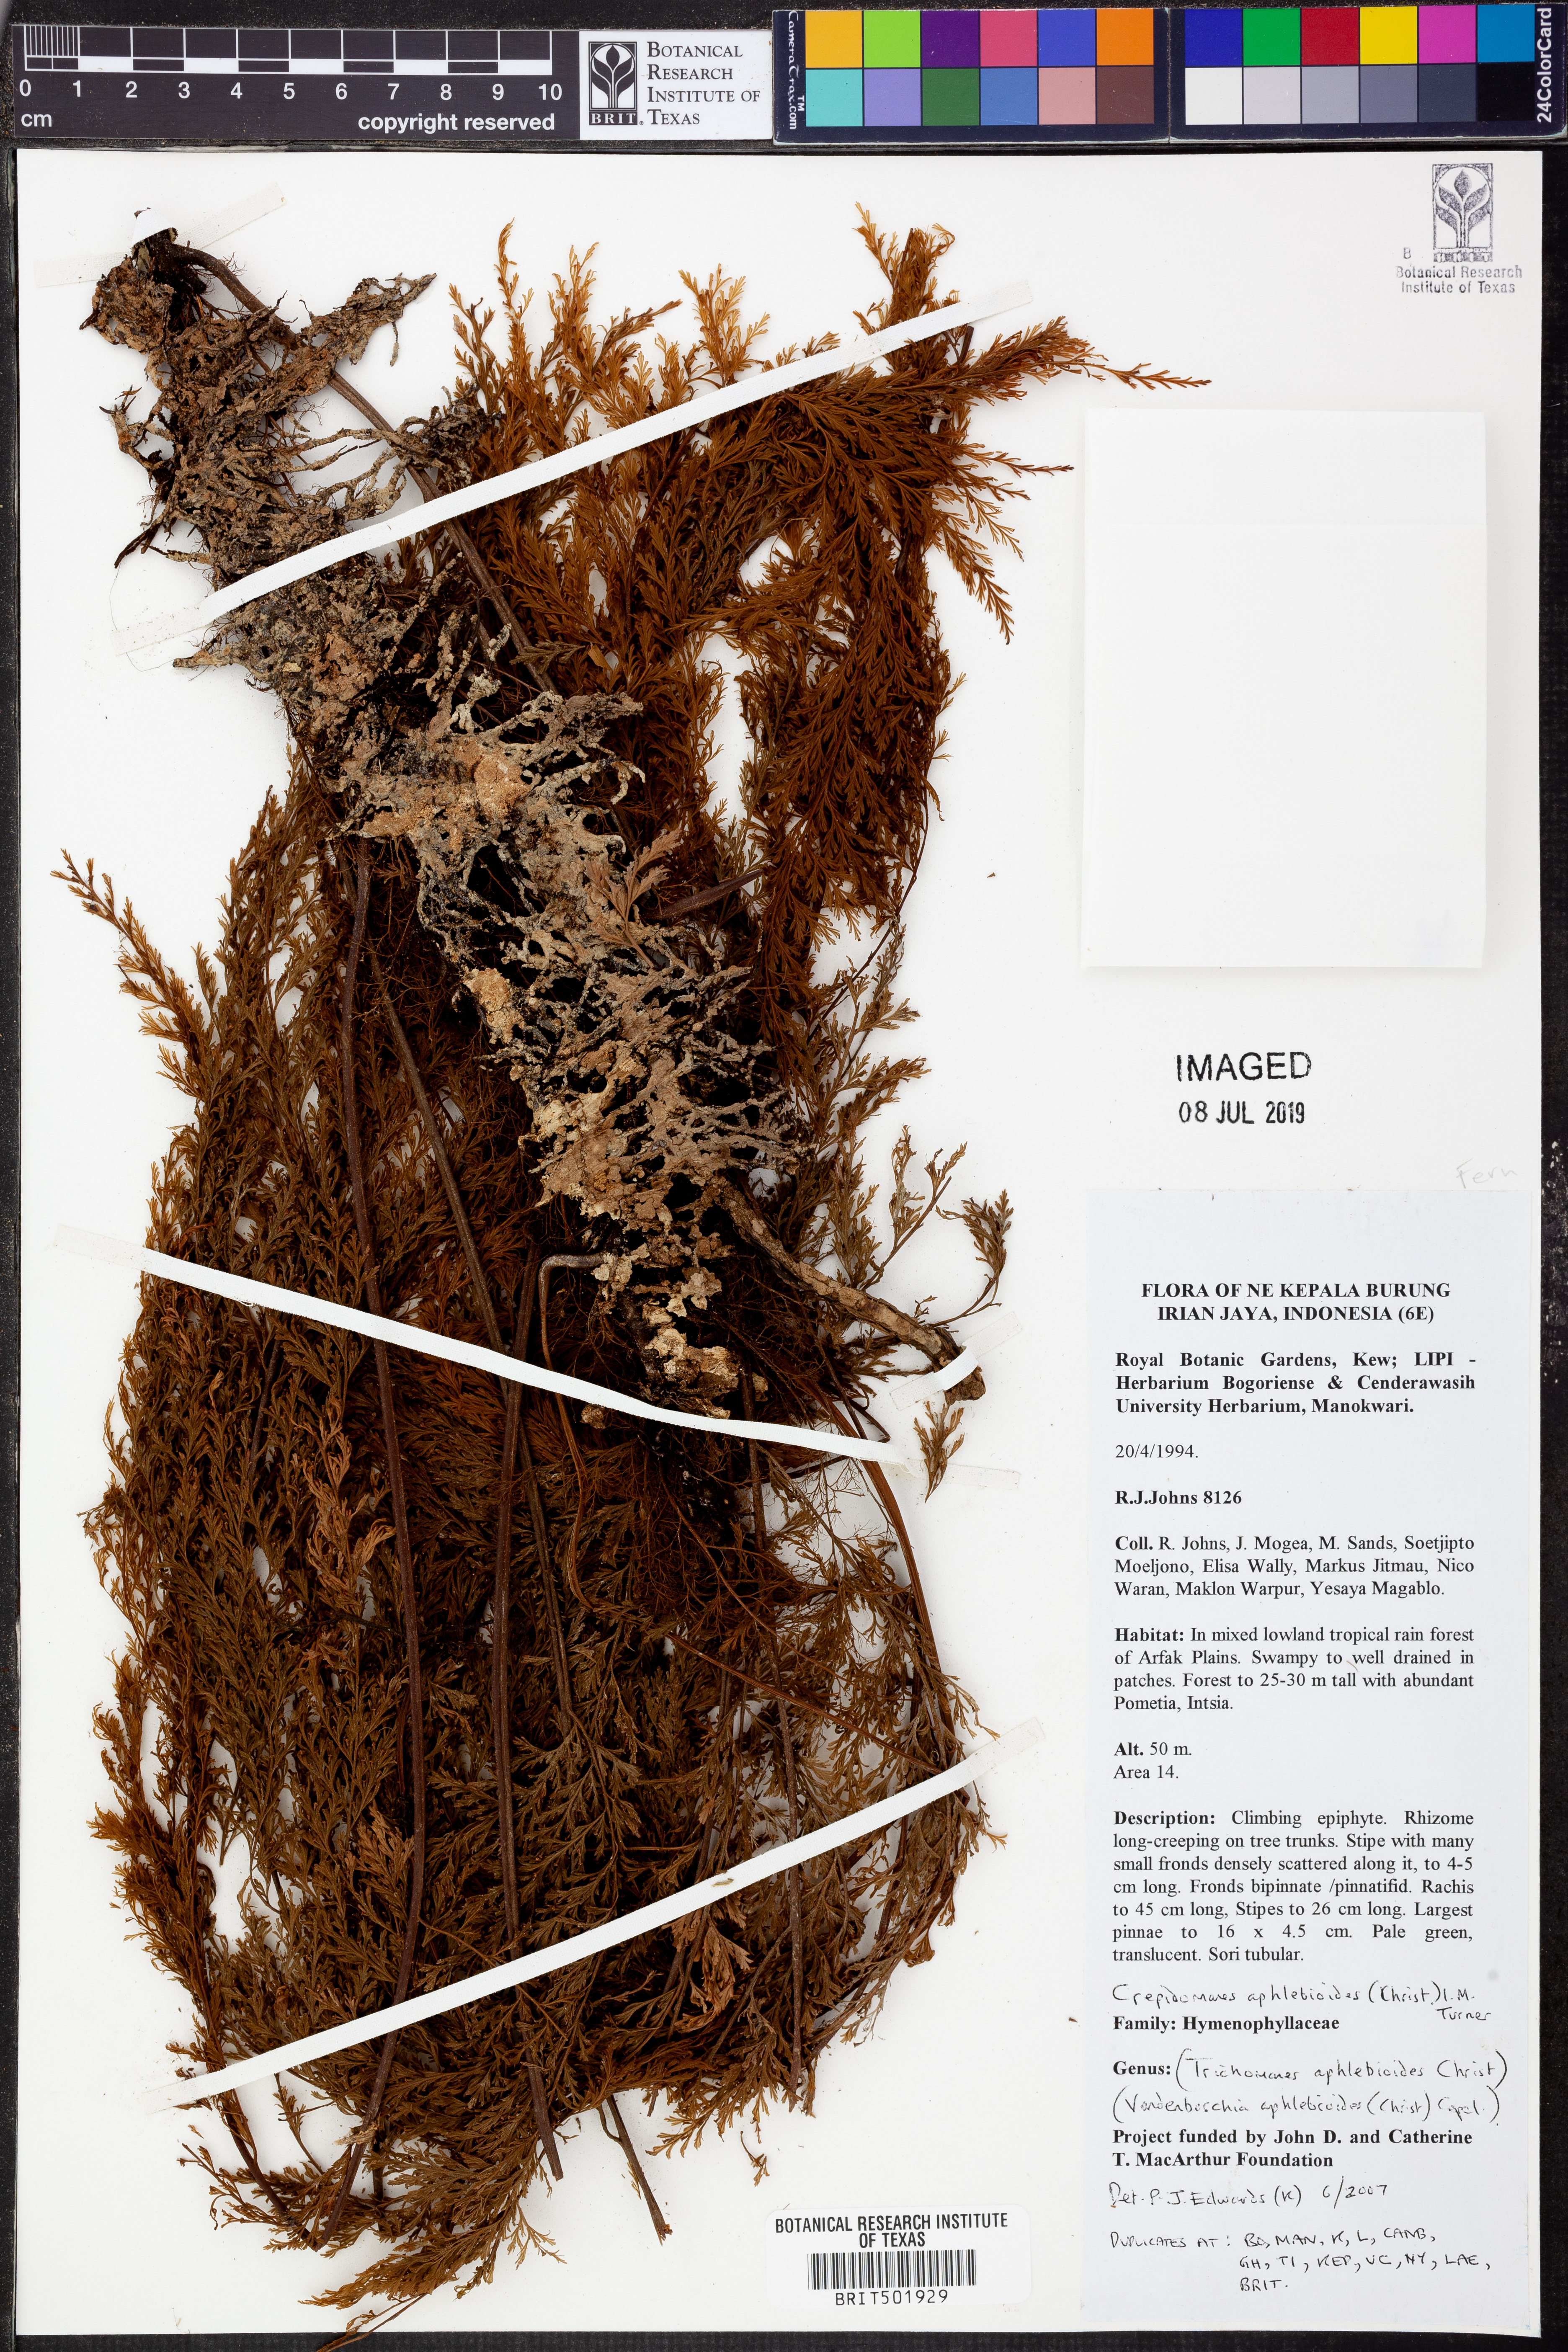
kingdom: Plantae
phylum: Tracheophyta
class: Polypodiopsida
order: Hymenophyllales
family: Hymenophyllaceae
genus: Crepidomanes
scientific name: Crepidomanes aphlebioides
